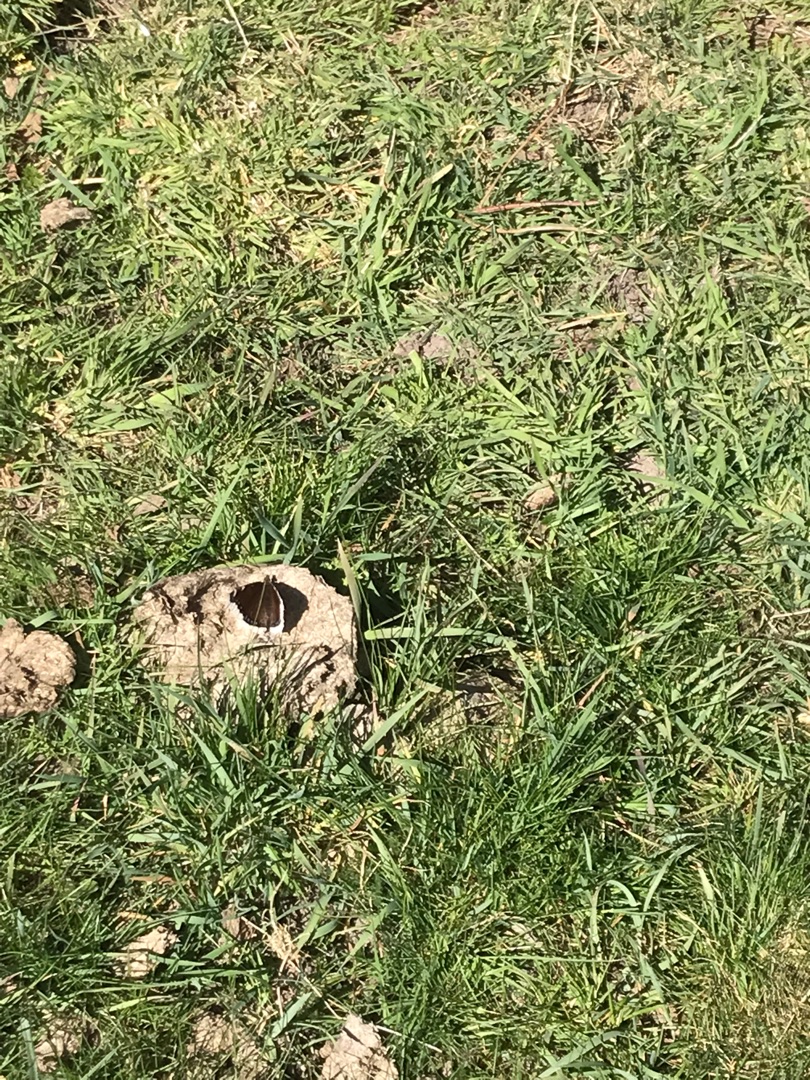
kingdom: Animalia
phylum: Arthropoda
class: Insecta
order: Lepidoptera
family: Nymphalidae
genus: Nymphalis
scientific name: Nymphalis antiopa
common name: Sørgekåbe
